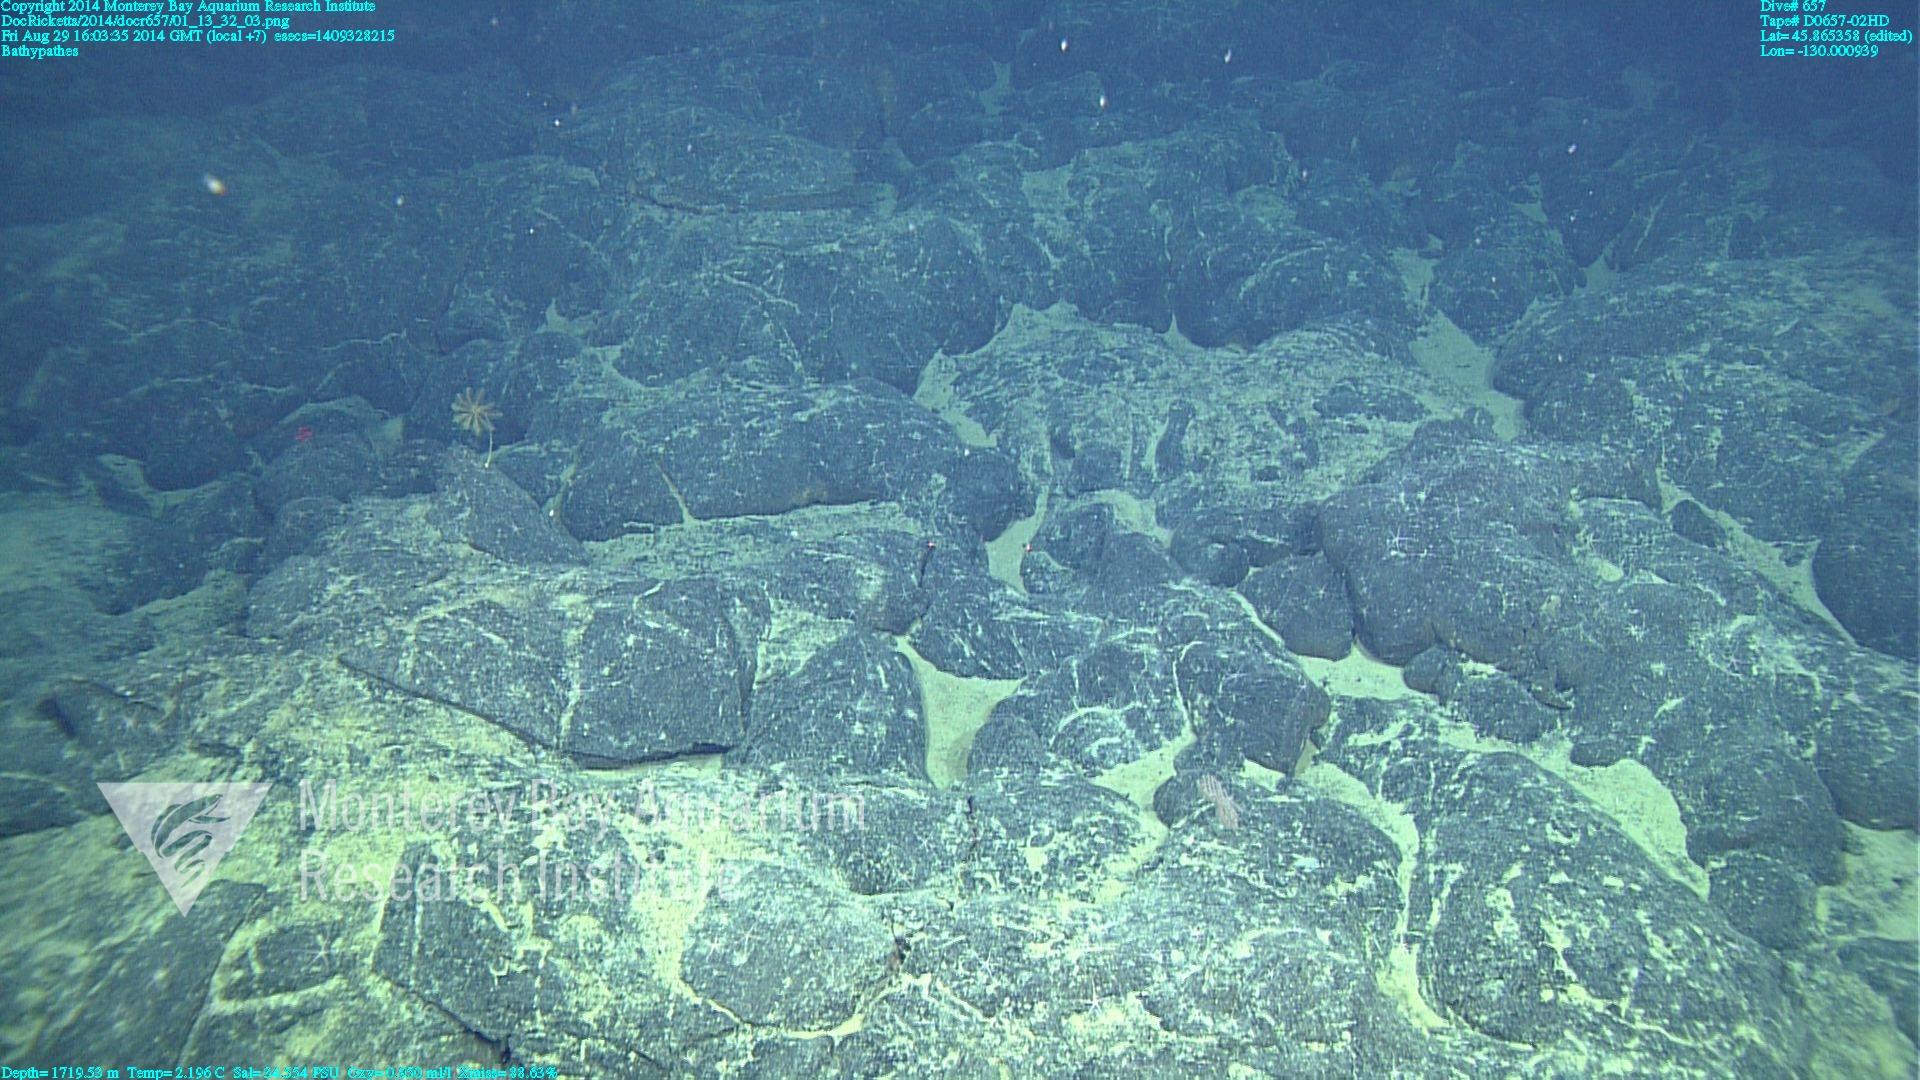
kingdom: Animalia
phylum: Cnidaria
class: Anthozoa
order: Antipatharia
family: Schizopathidae
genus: Bathypathes
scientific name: Bathypathes
